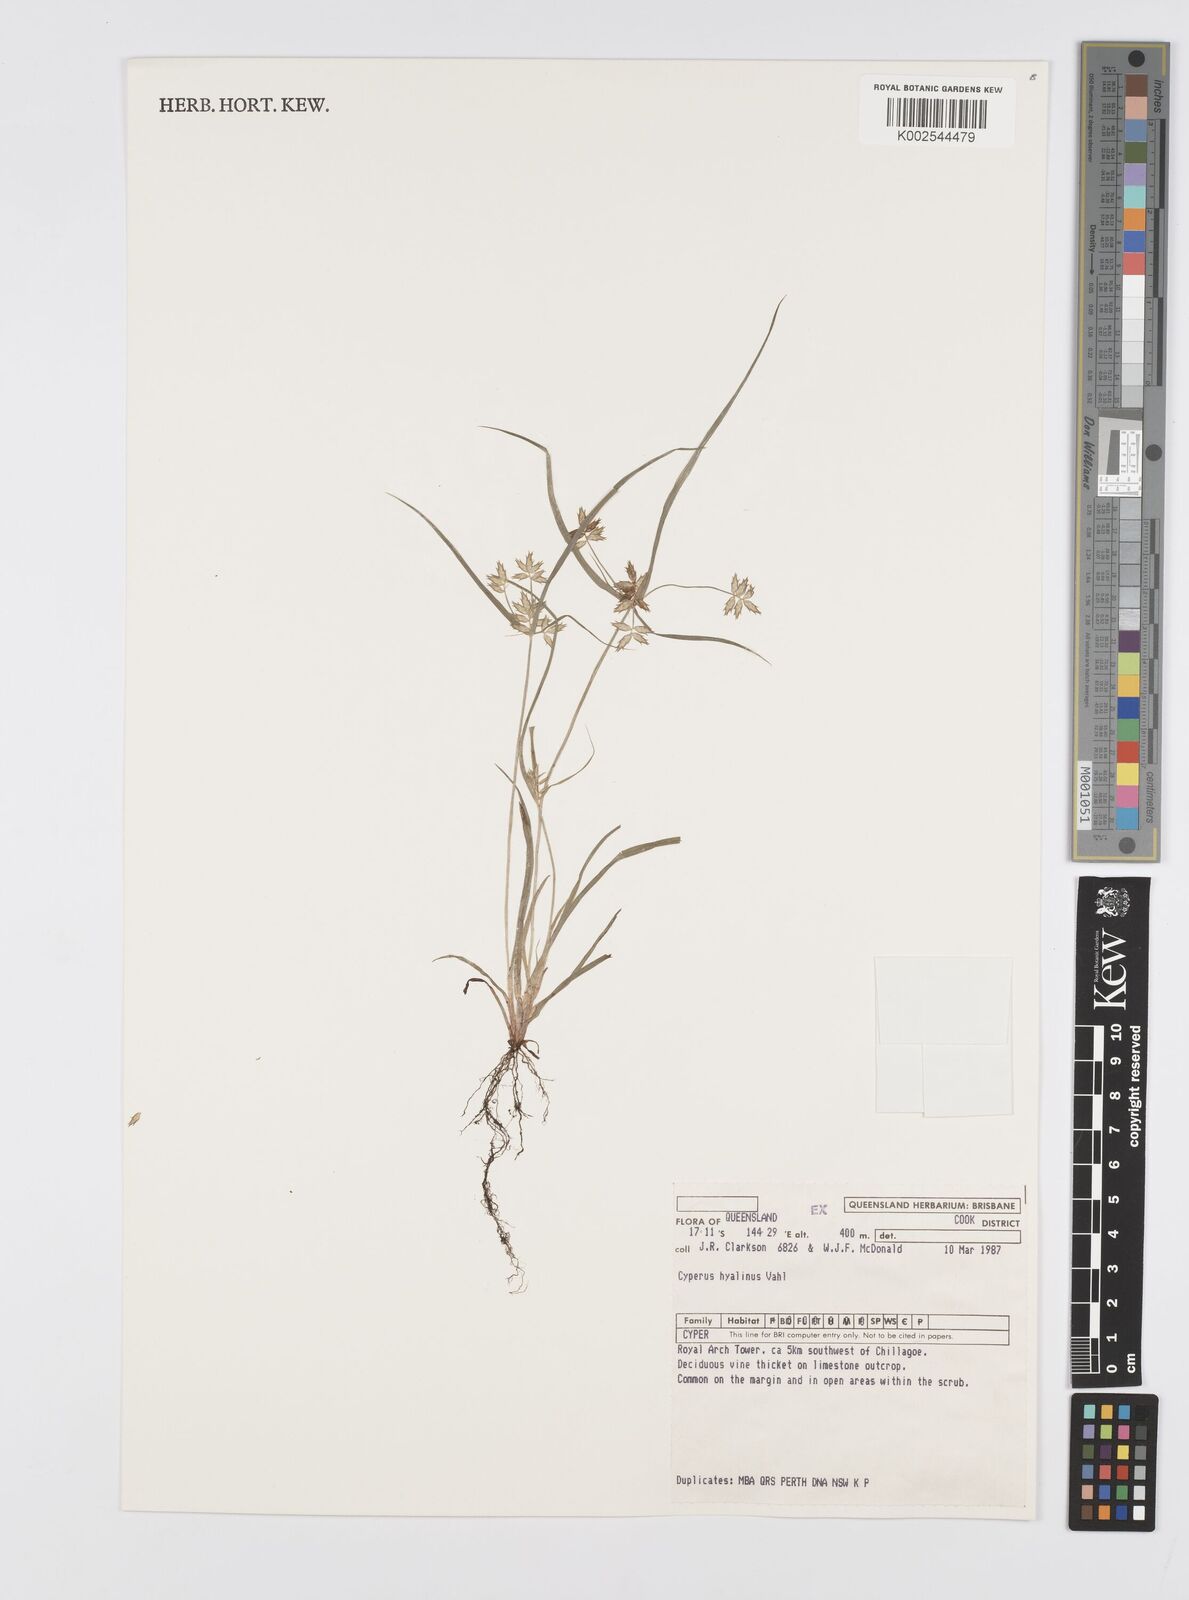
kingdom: Plantae
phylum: Tracheophyta
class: Liliopsida
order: Poales
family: Cyperaceae
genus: Cyperus
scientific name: Cyperus hyalinus
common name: Queensland sedge
